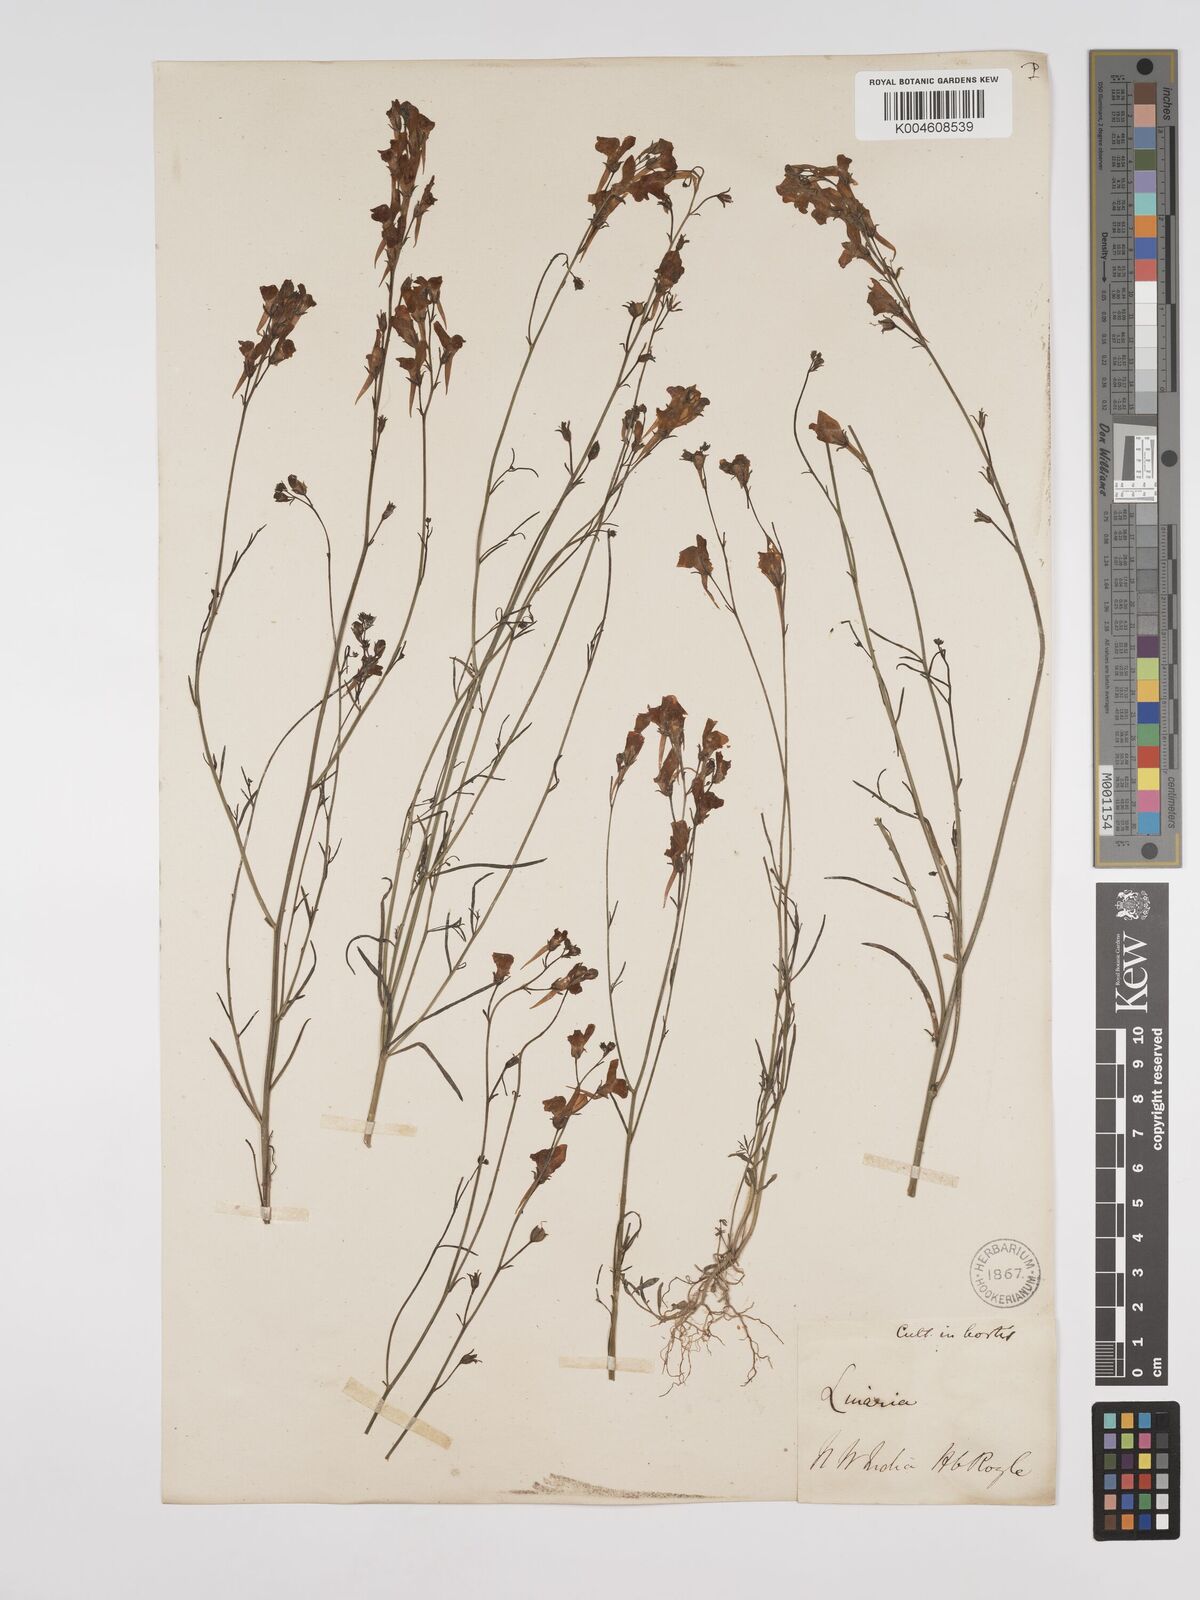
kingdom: Plantae
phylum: Tracheophyta
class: Magnoliopsida
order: Lamiales
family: Plantaginaceae
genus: Kickxia
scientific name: Kickxia
